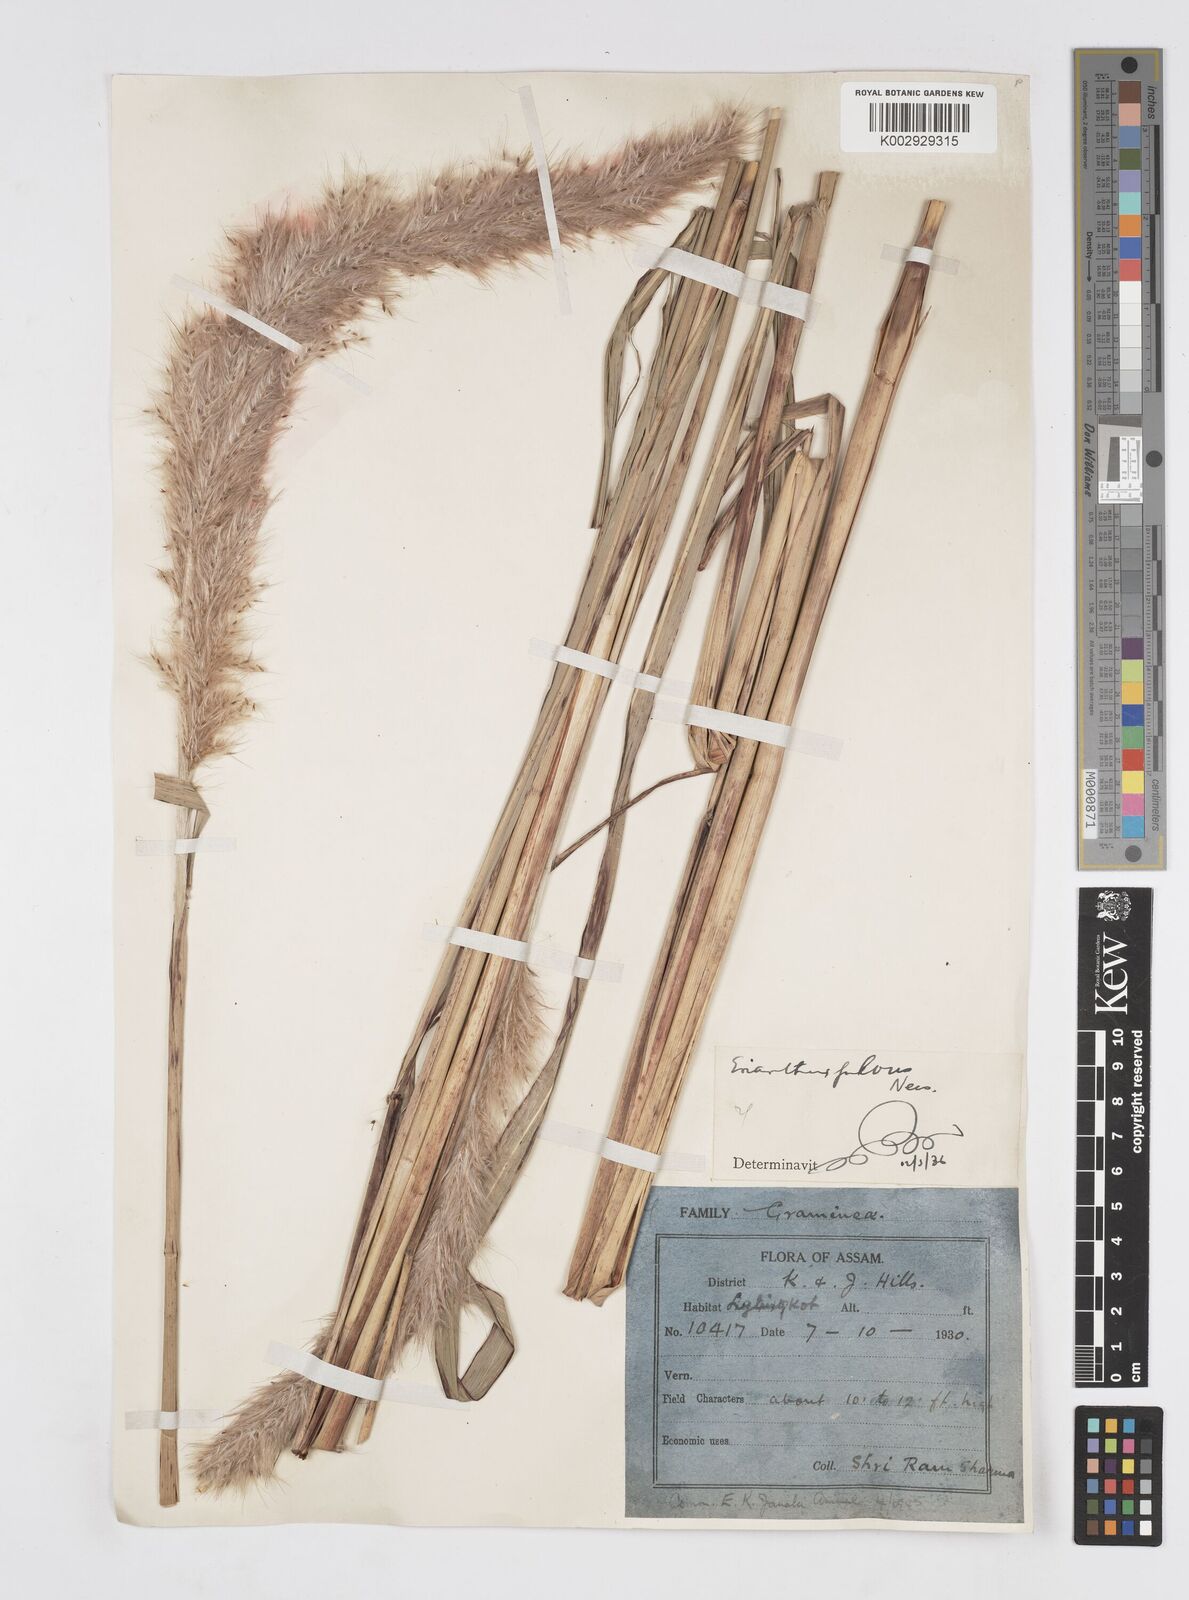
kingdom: Plantae
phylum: Tracheophyta
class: Liliopsida
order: Poales
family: Poaceae
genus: Tripidium
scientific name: Tripidium rufipilum
